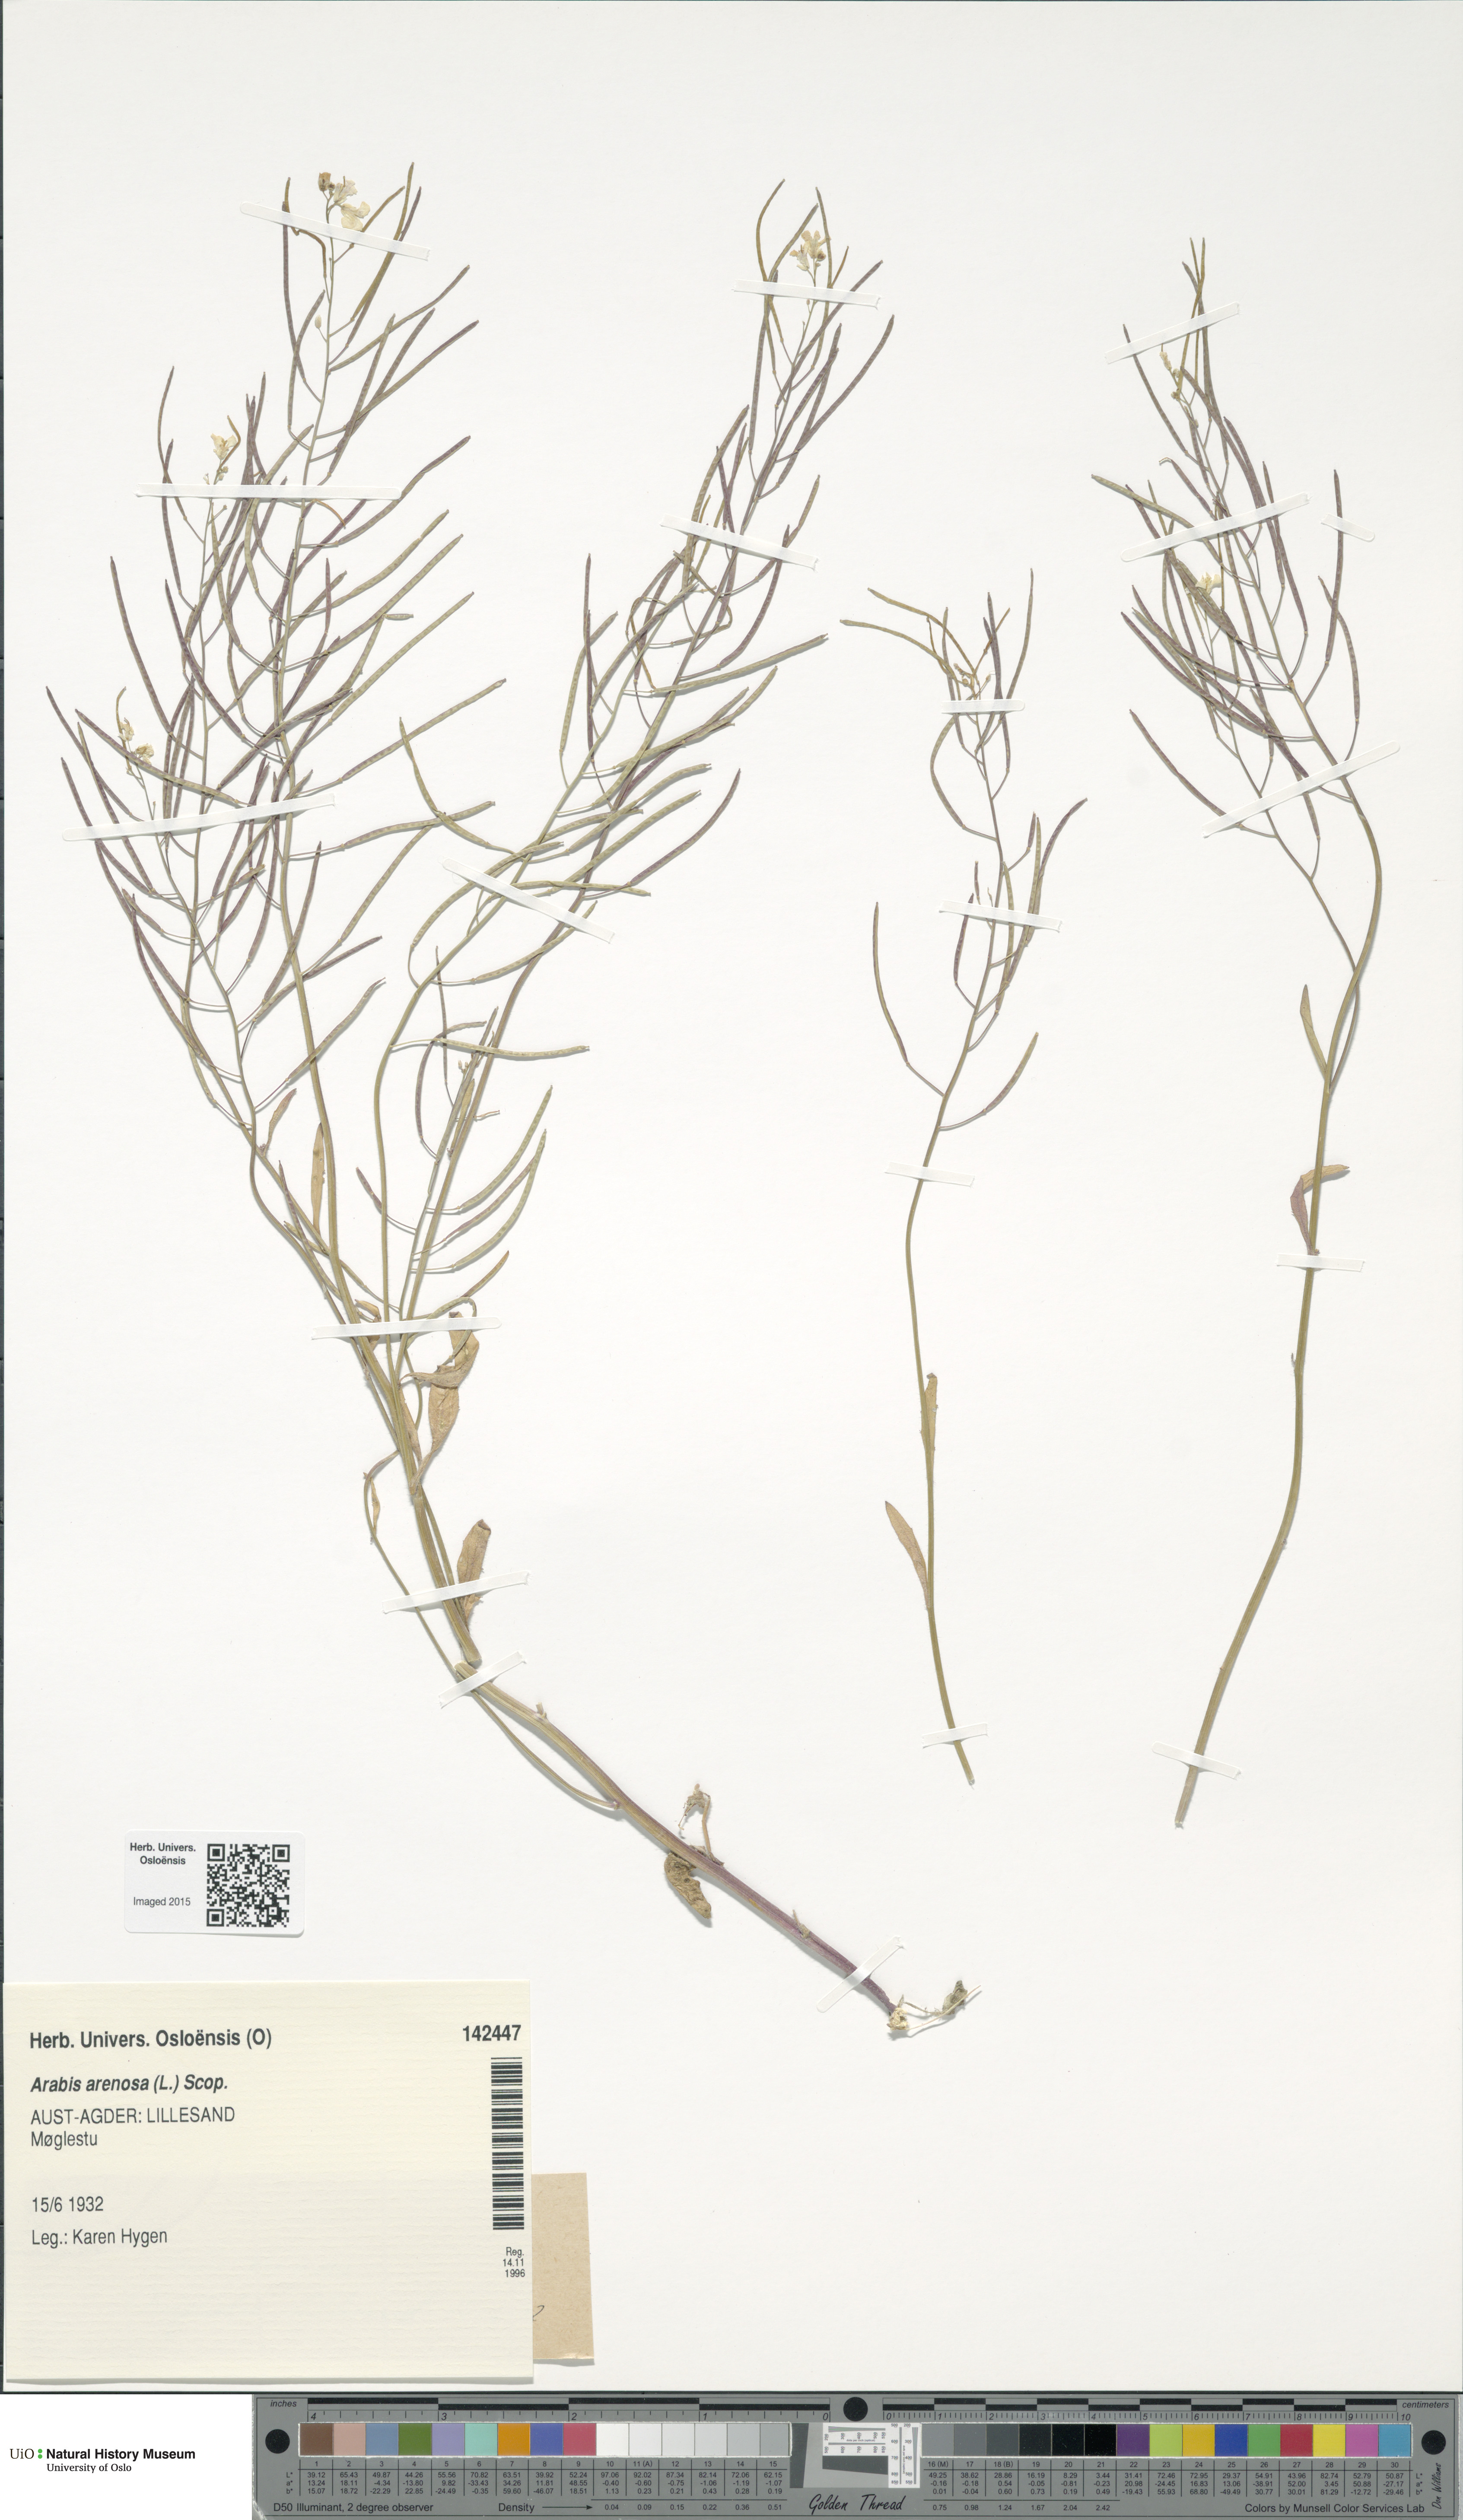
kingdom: Plantae
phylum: Tracheophyta
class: Magnoliopsida
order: Brassicales
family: Brassicaceae
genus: Arabidopsis
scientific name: Arabidopsis arenosa
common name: Sand rock-cress
